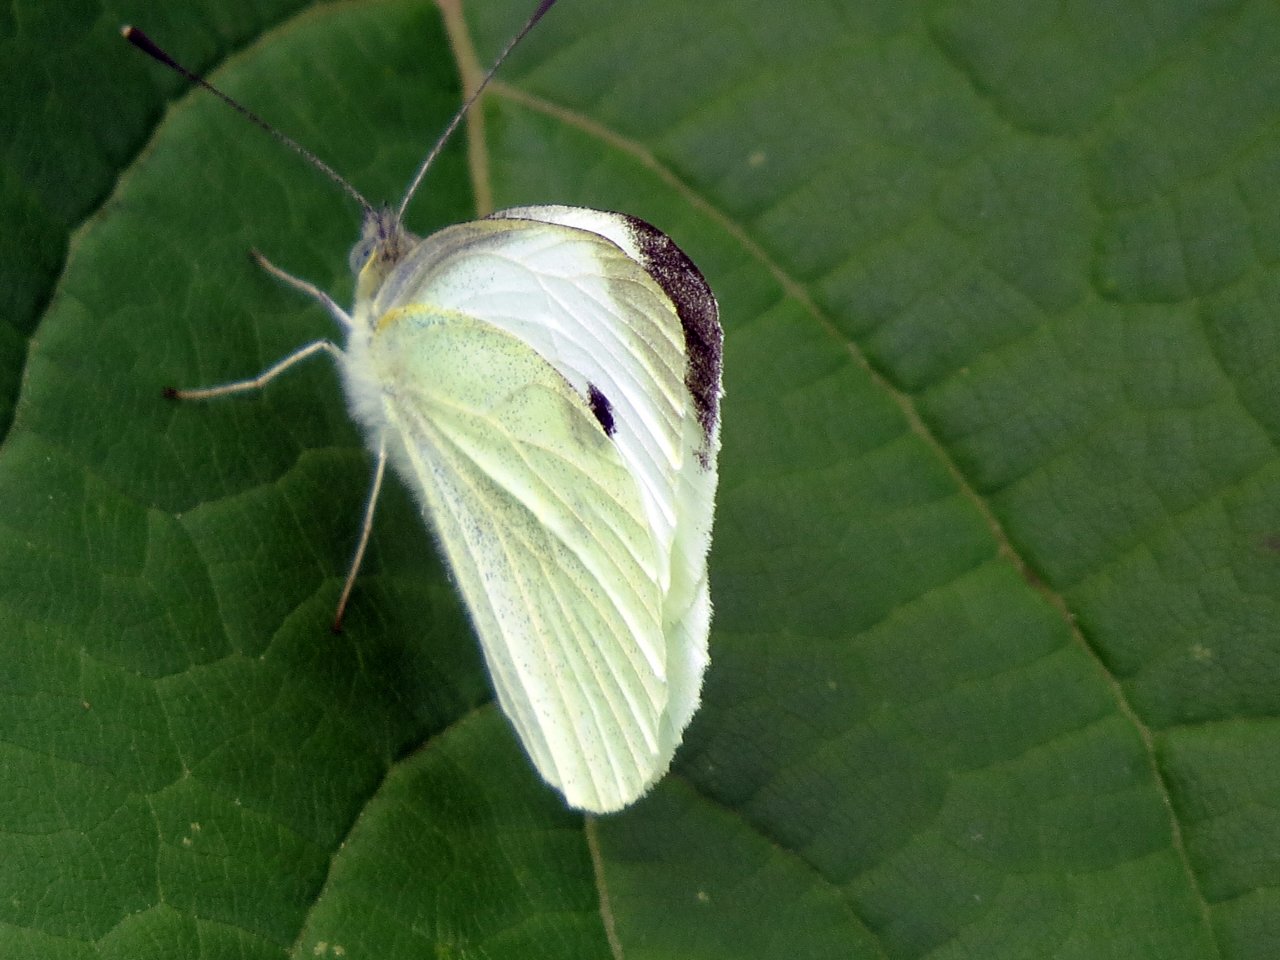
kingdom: Animalia
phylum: Arthropoda
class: Insecta
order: Lepidoptera
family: Pieridae
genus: Pieris
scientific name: Pieris rapae
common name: Cabbage White
